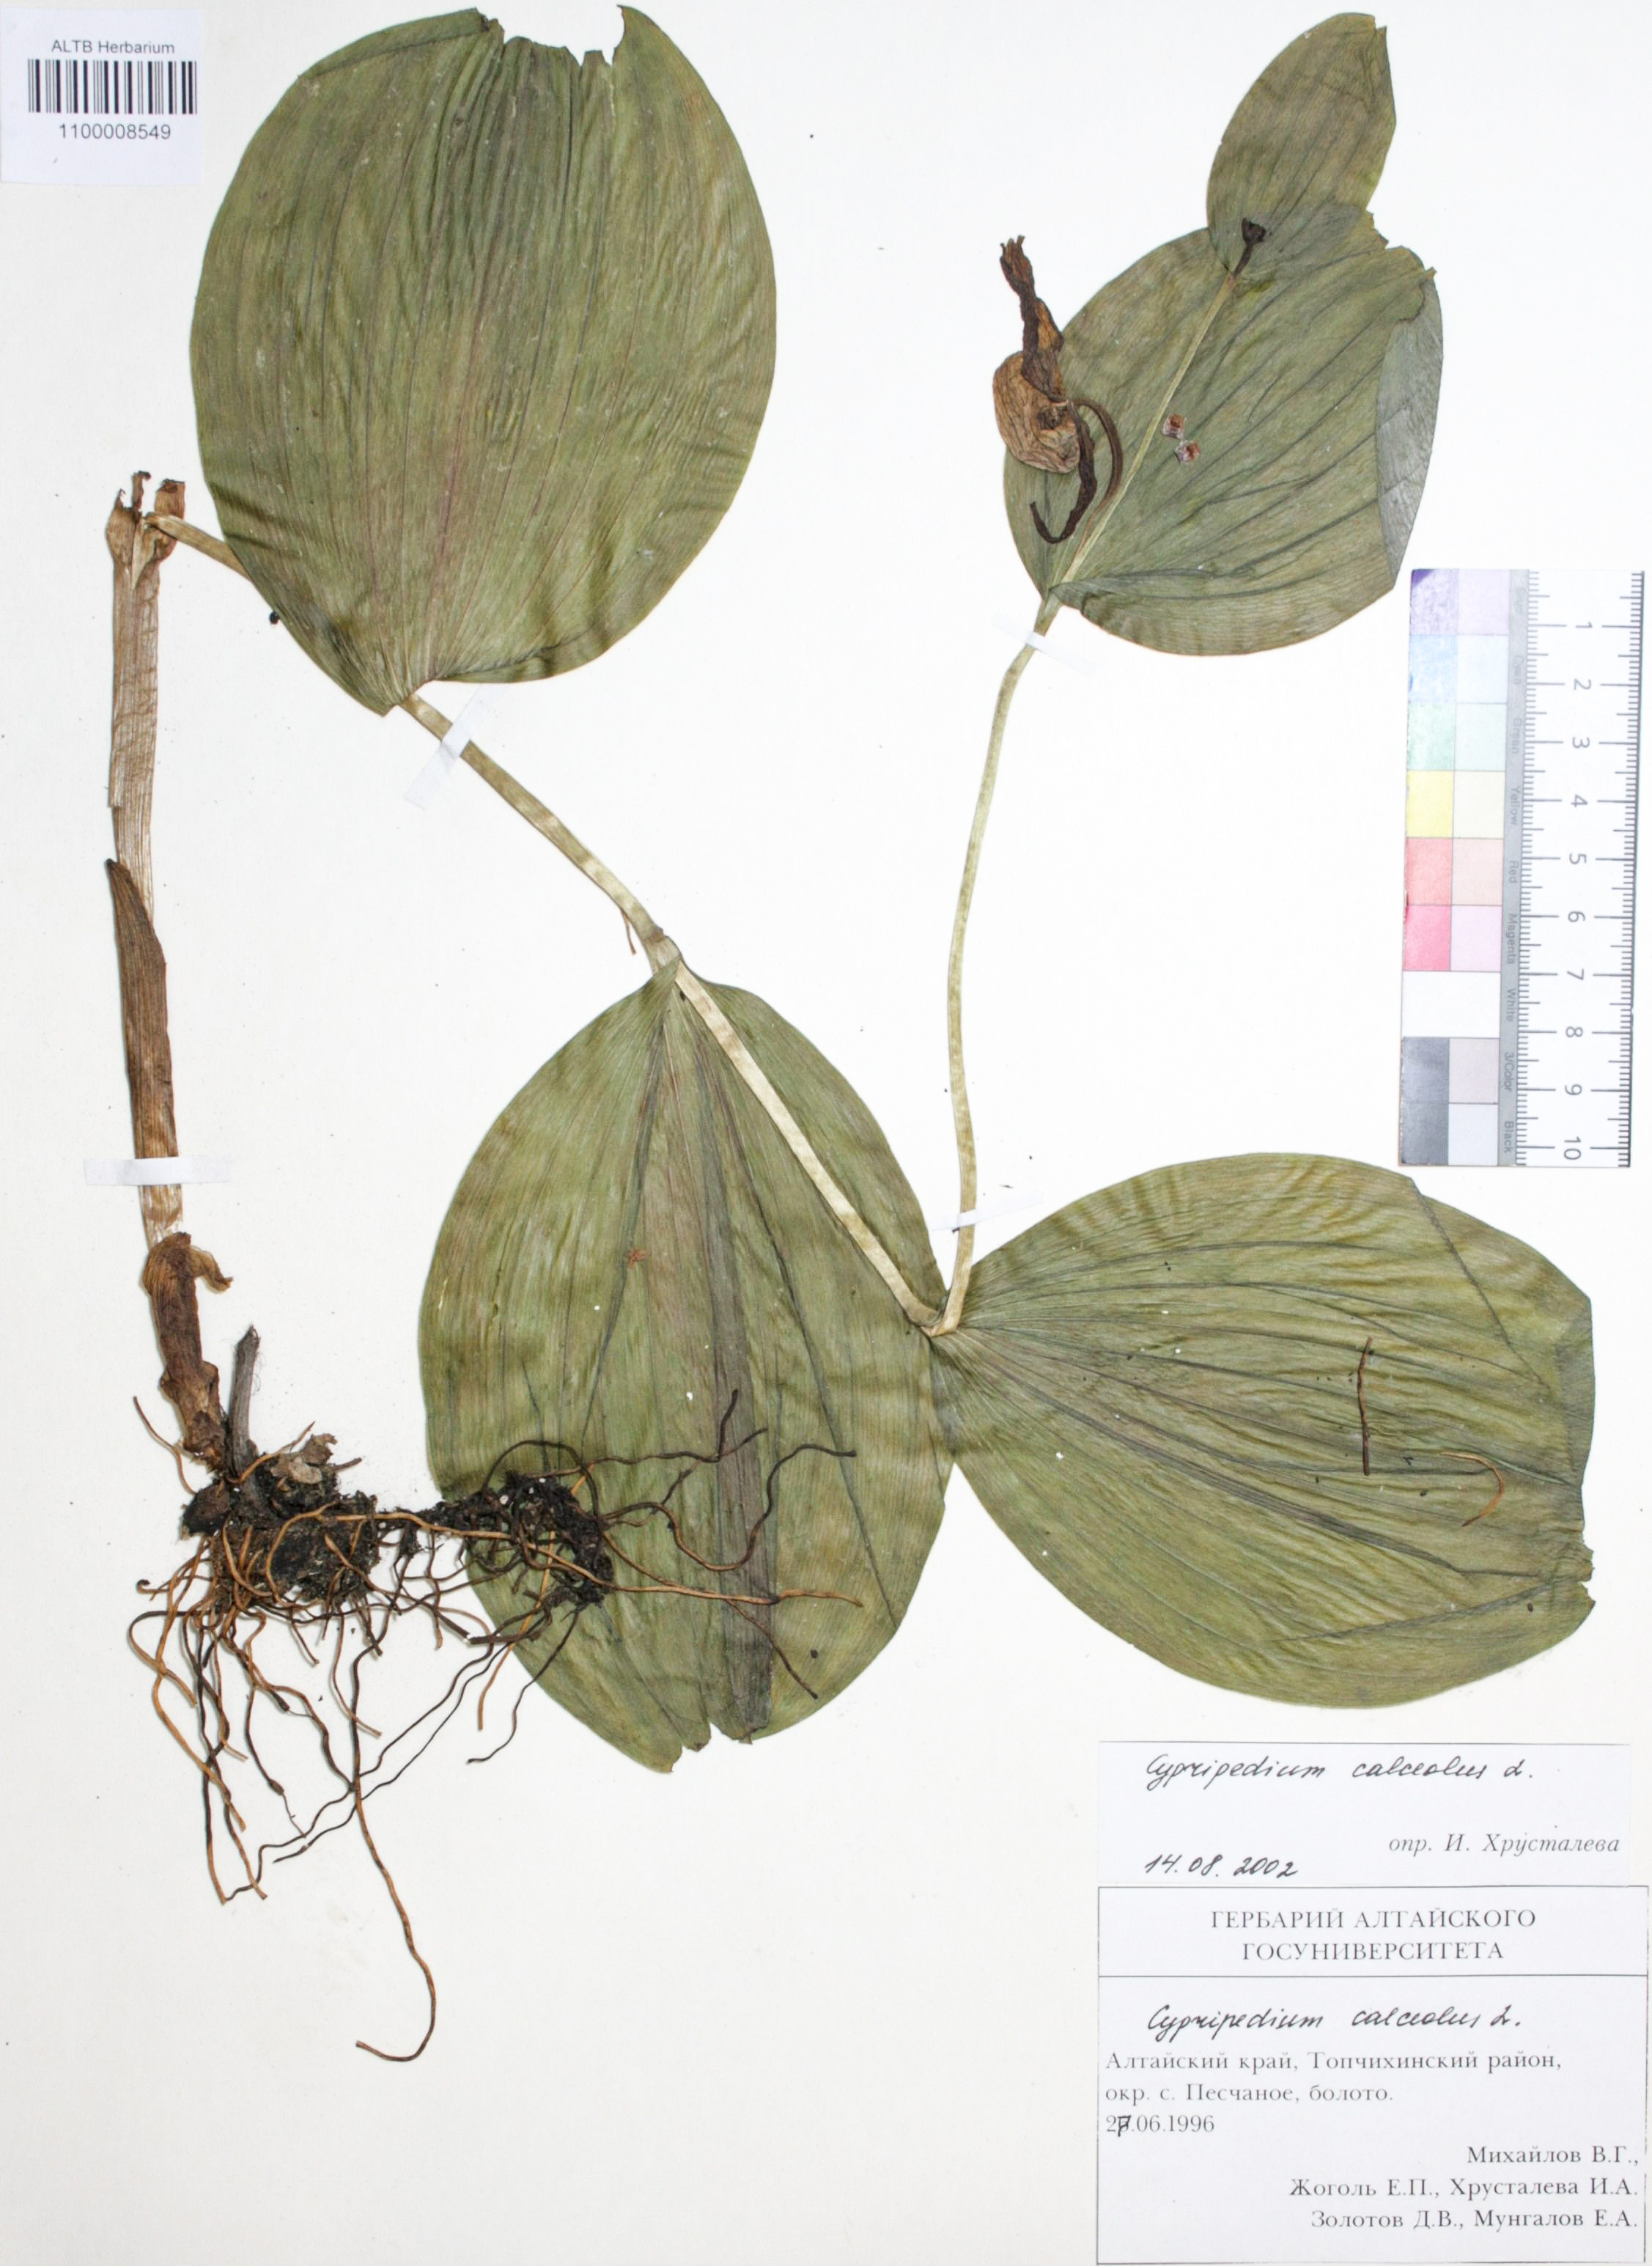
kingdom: Plantae
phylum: Tracheophyta
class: Liliopsida
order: Asparagales
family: Orchidaceae
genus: Cypripedium
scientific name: Cypripedium calceolus
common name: Lady's-slipper
